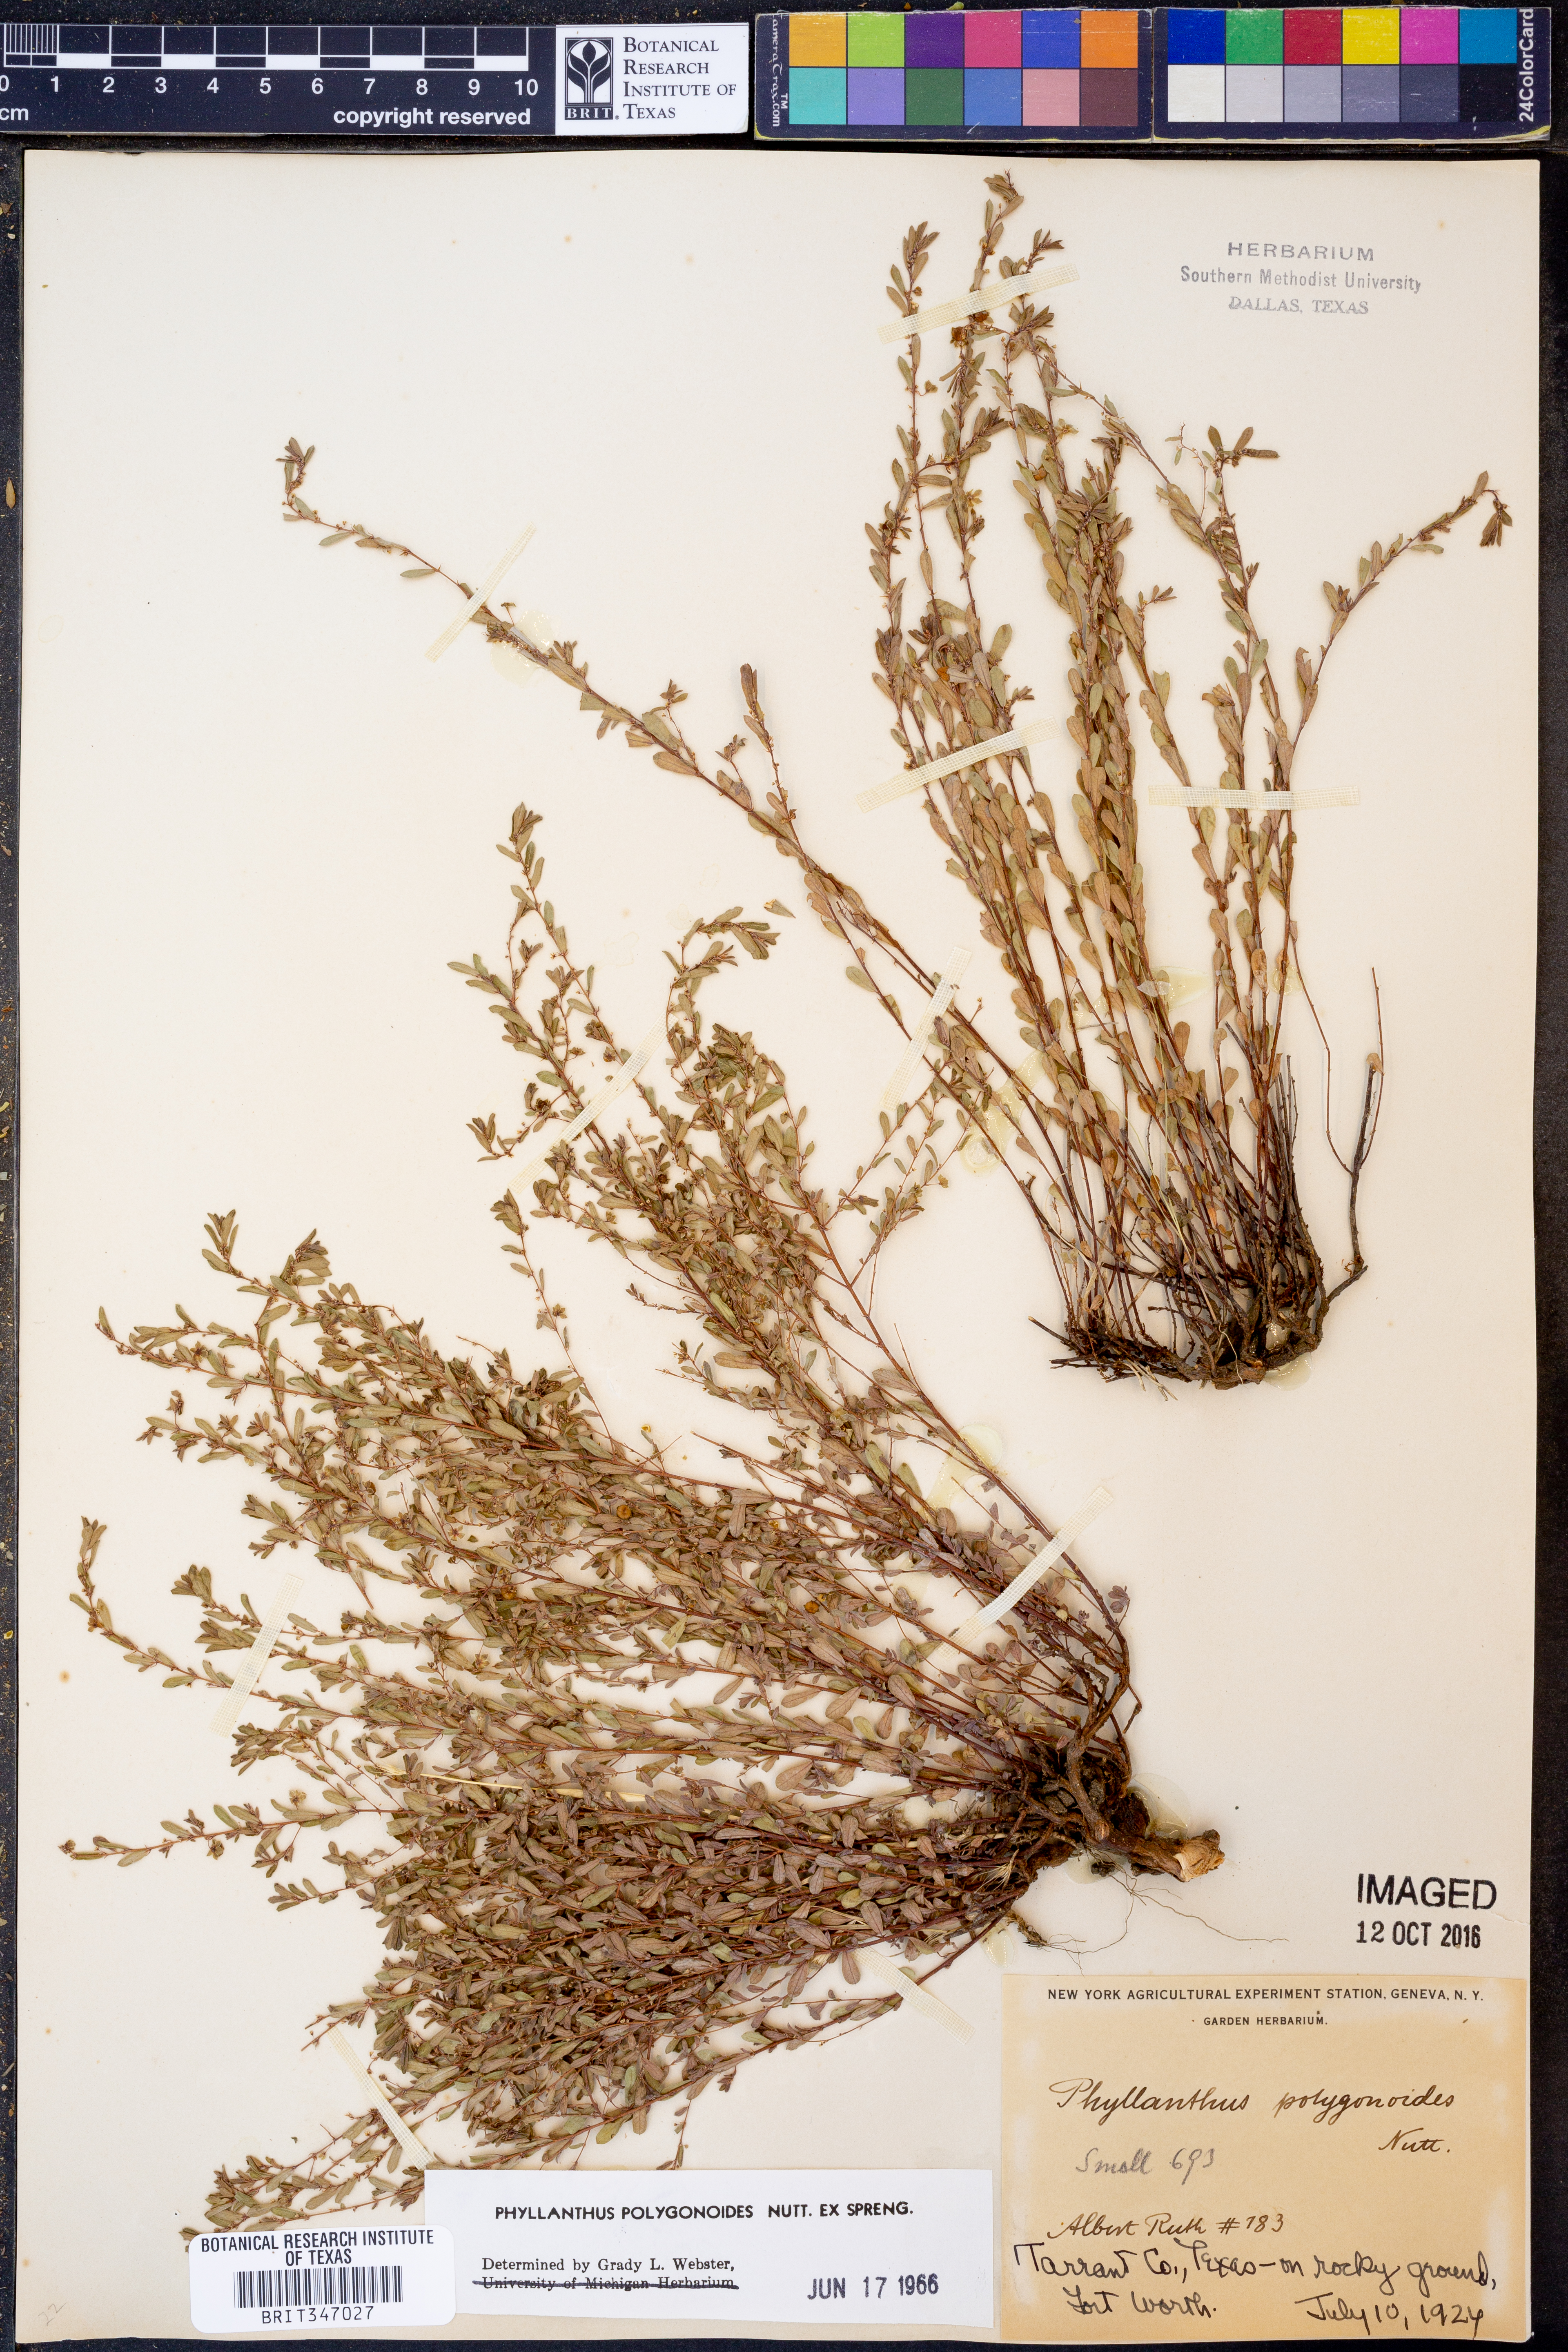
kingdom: Plantae
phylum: Tracheophyta
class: Magnoliopsida
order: Malpighiales
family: Phyllanthaceae
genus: Phyllanthus
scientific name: Phyllanthus polygonoides
